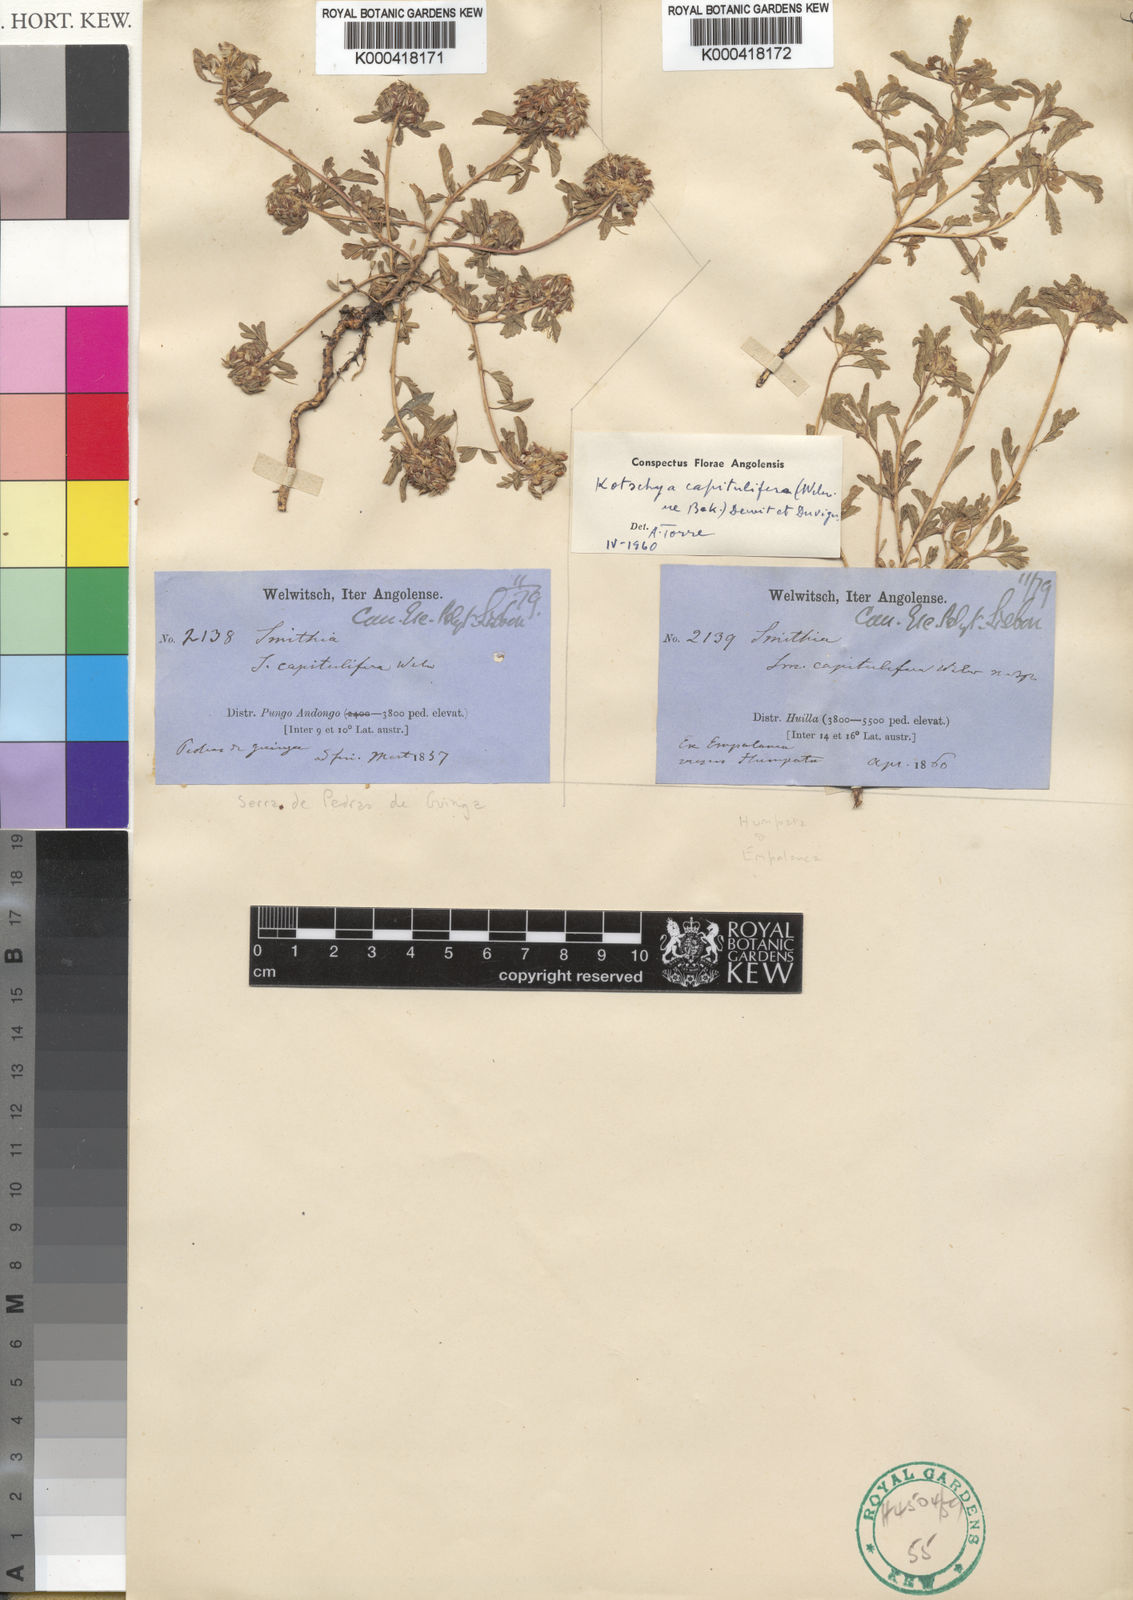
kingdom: Plantae
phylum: Tracheophyta
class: Magnoliopsida
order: Fabales
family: Fabaceae
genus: Kotschya
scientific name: Kotschya capitulifera
